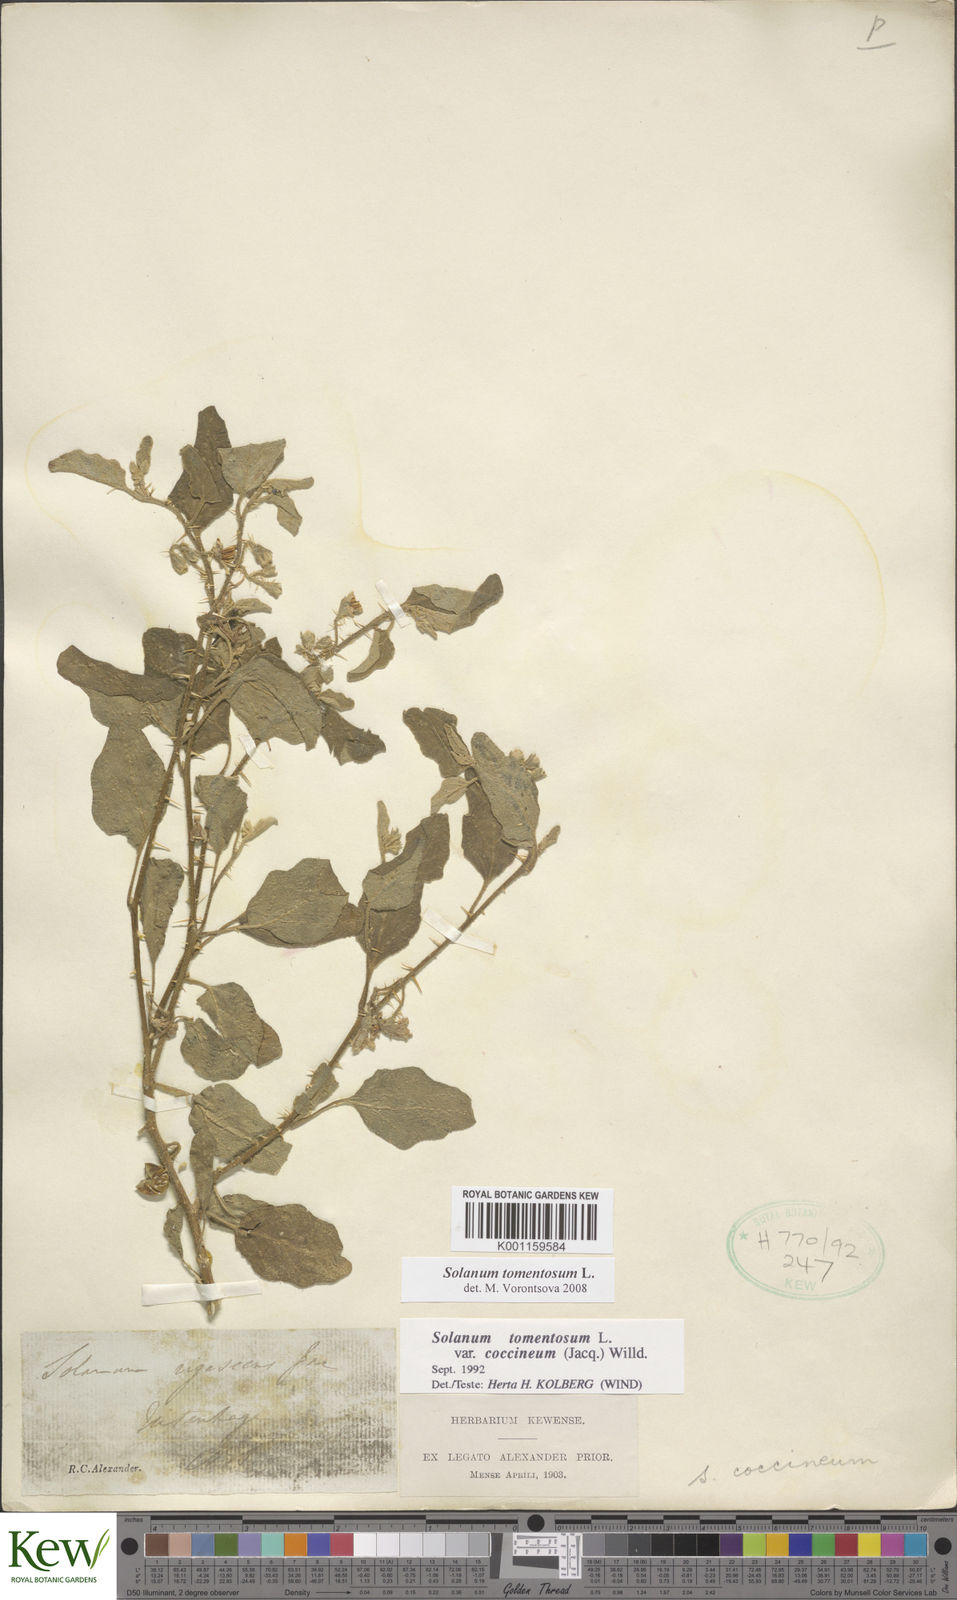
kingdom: Plantae
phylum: Tracheophyta
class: Magnoliopsida
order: Solanales
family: Solanaceae
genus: Solanum
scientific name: Solanum tomentosum
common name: Wild aubergine
